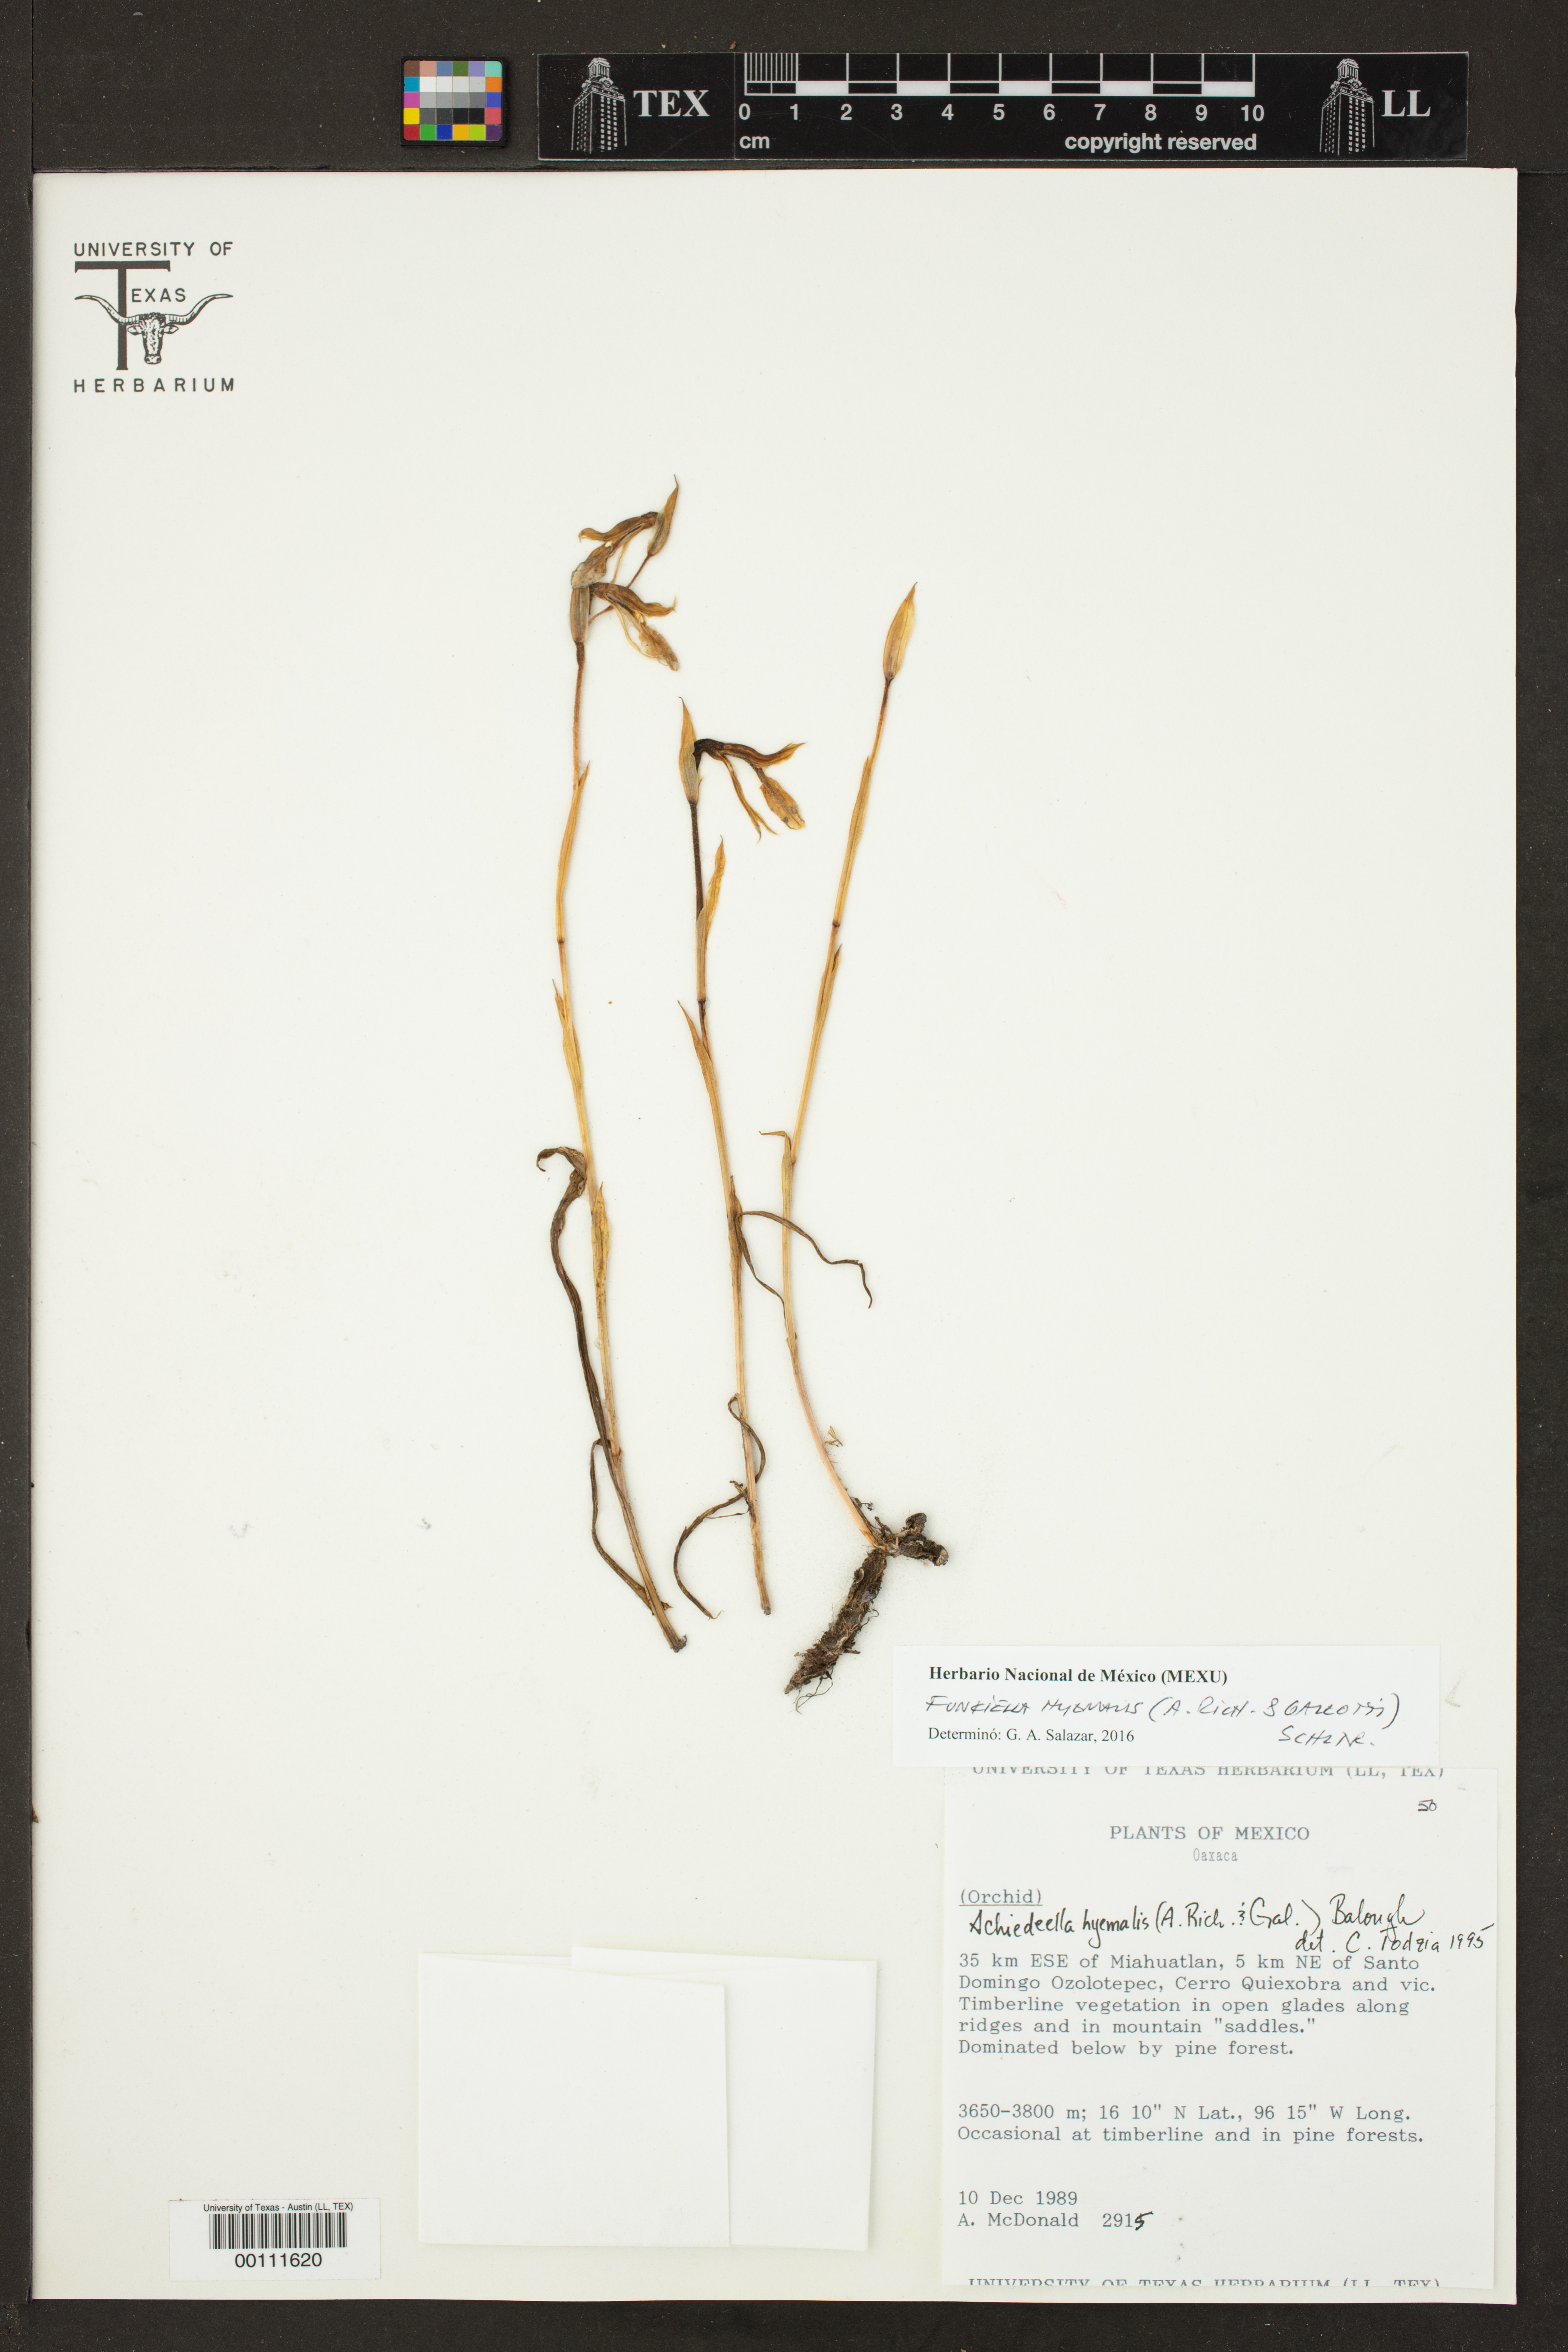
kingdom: Plantae
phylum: Tracheophyta
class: Liliopsida
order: Asparagales
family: Orchidaceae
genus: Funkiella
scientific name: Funkiella hyemalis
